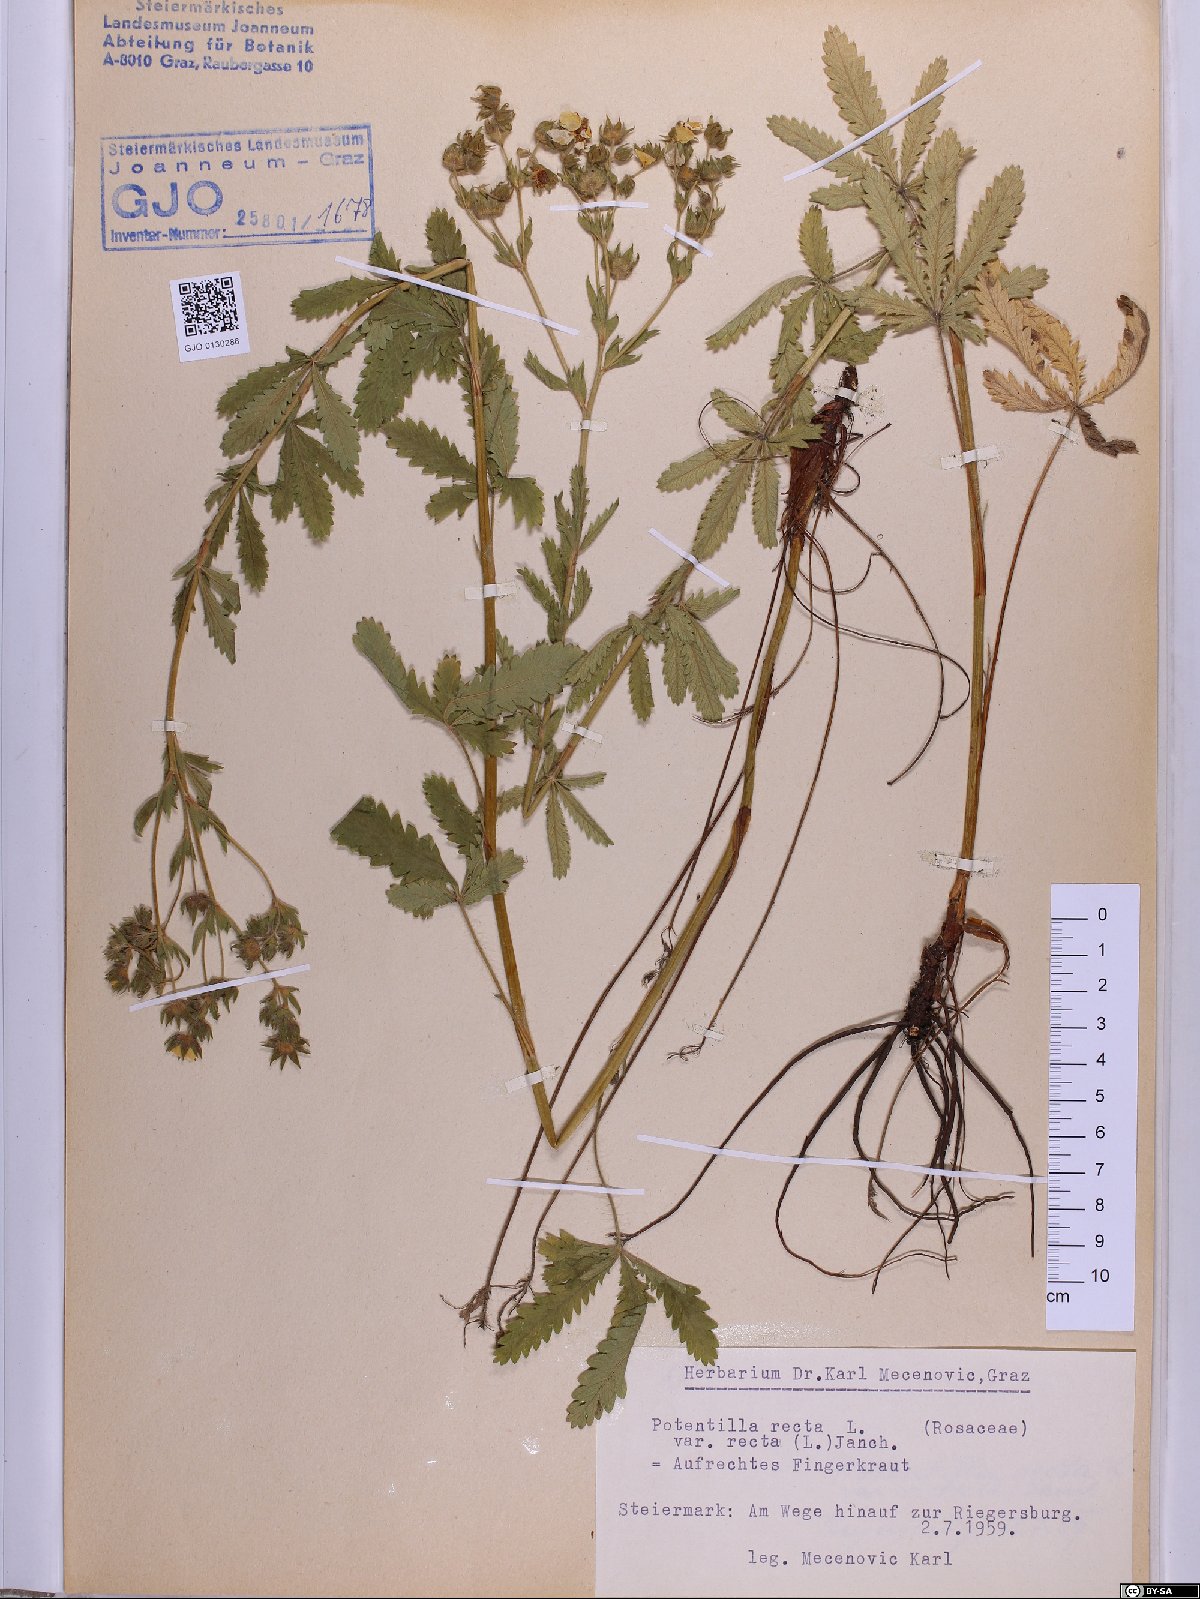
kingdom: Plantae
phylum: Tracheophyta
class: Magnoliopsida
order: Rosales
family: Rosaceae
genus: Potentilla
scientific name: Potentilla recta
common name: Sulphur cinquefoil
